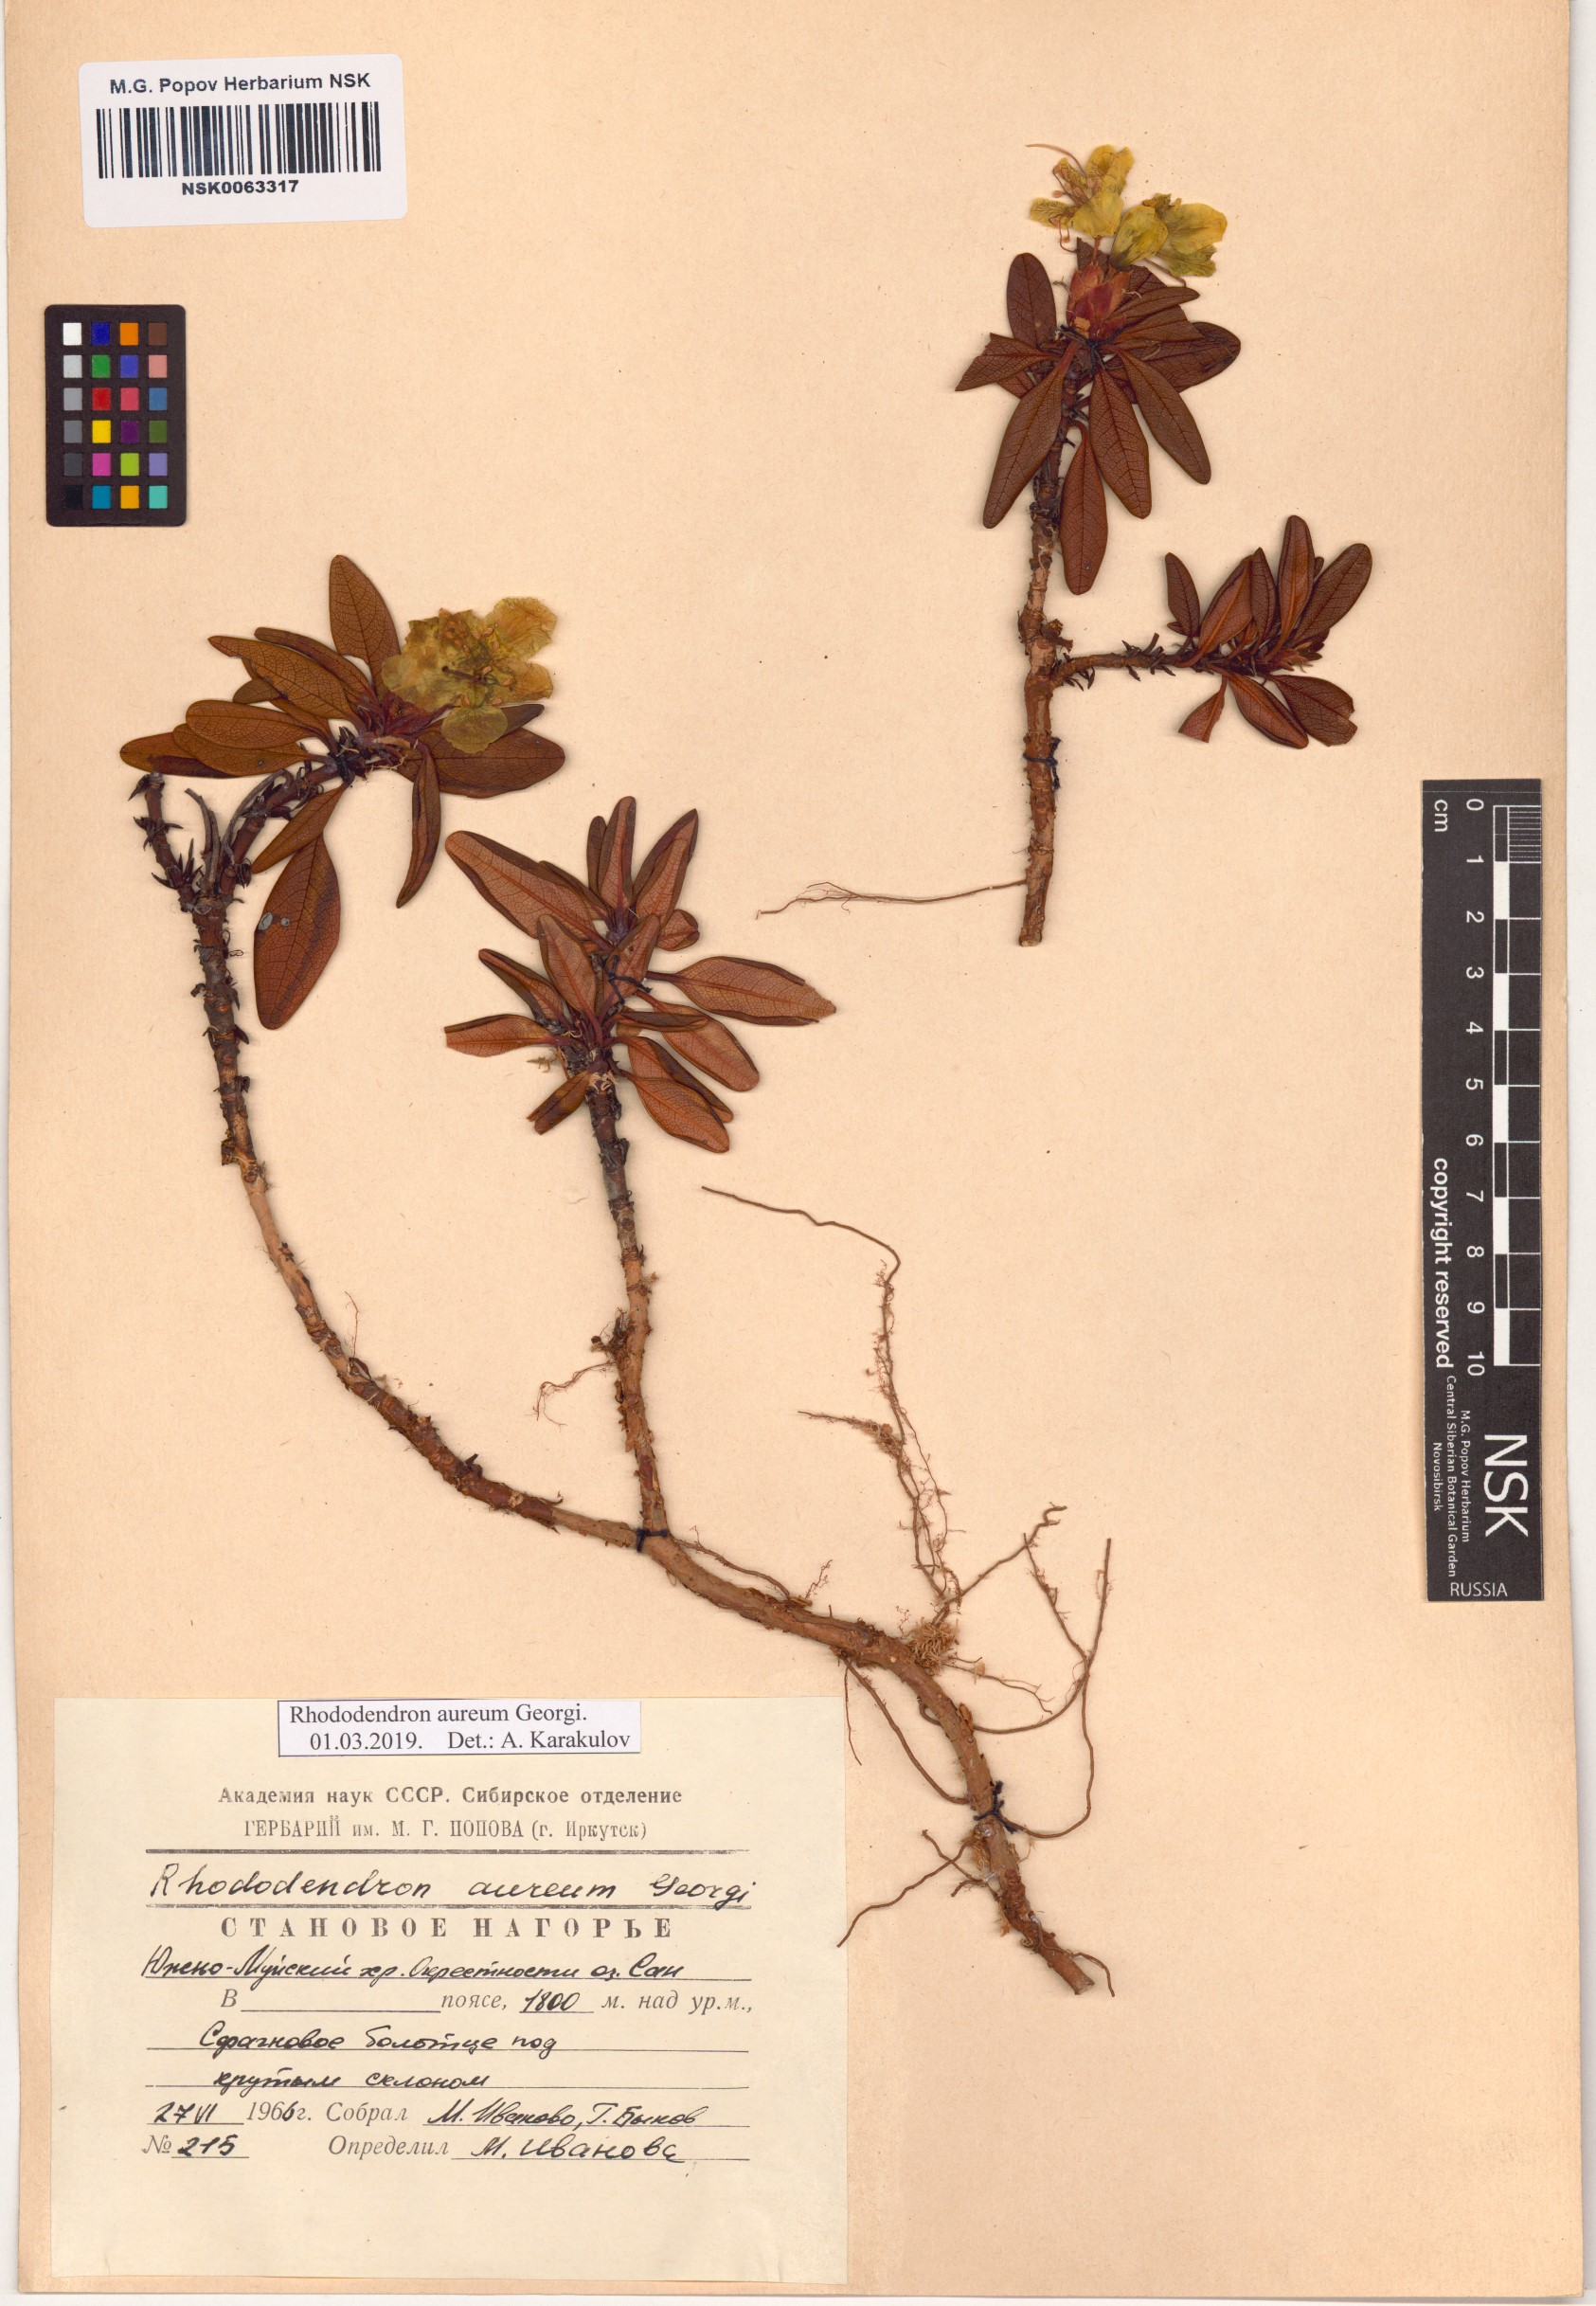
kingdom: Plantae
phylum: Tracheophyta
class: Magnoliopsida
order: Ericales
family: Ericaceae
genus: Rhododendron
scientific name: Rhododendron aureum
